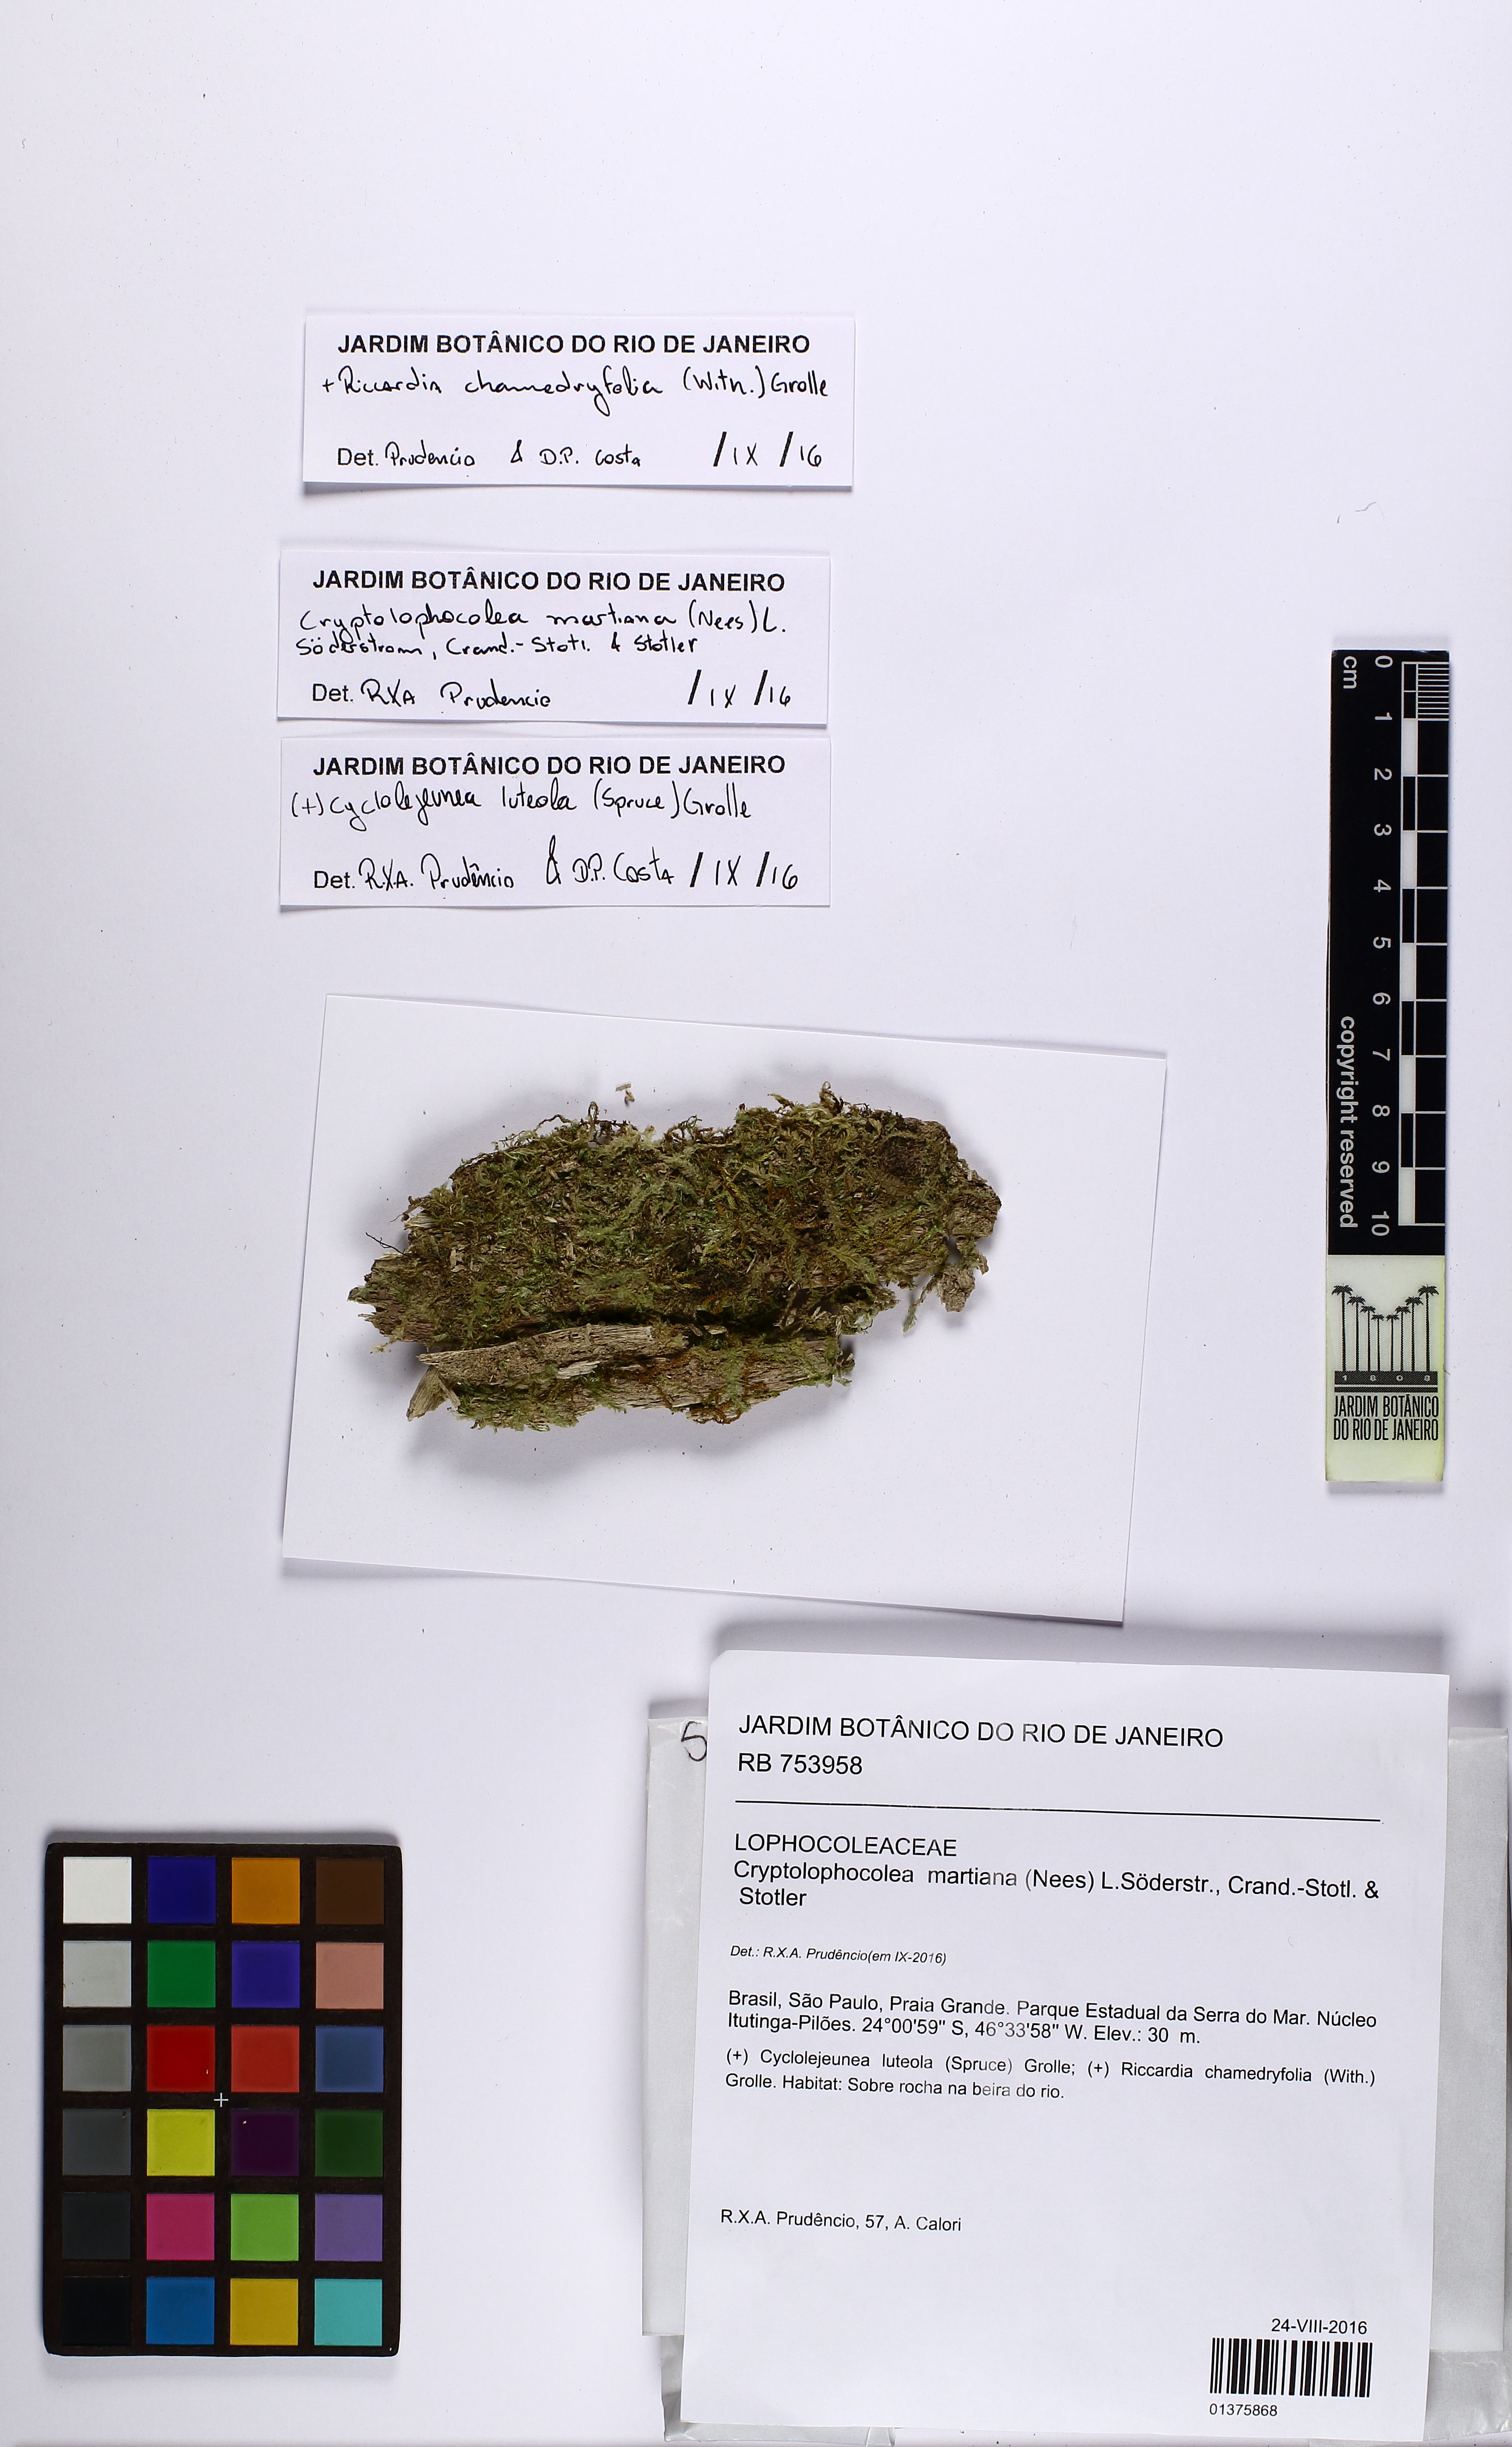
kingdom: Plantae
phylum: Marchantiophyta
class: Jungermanniopsida
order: Jungermanniales
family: Lophocoleaceae
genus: Cryptolophocolea
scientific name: Cryptolophocolea martiana
